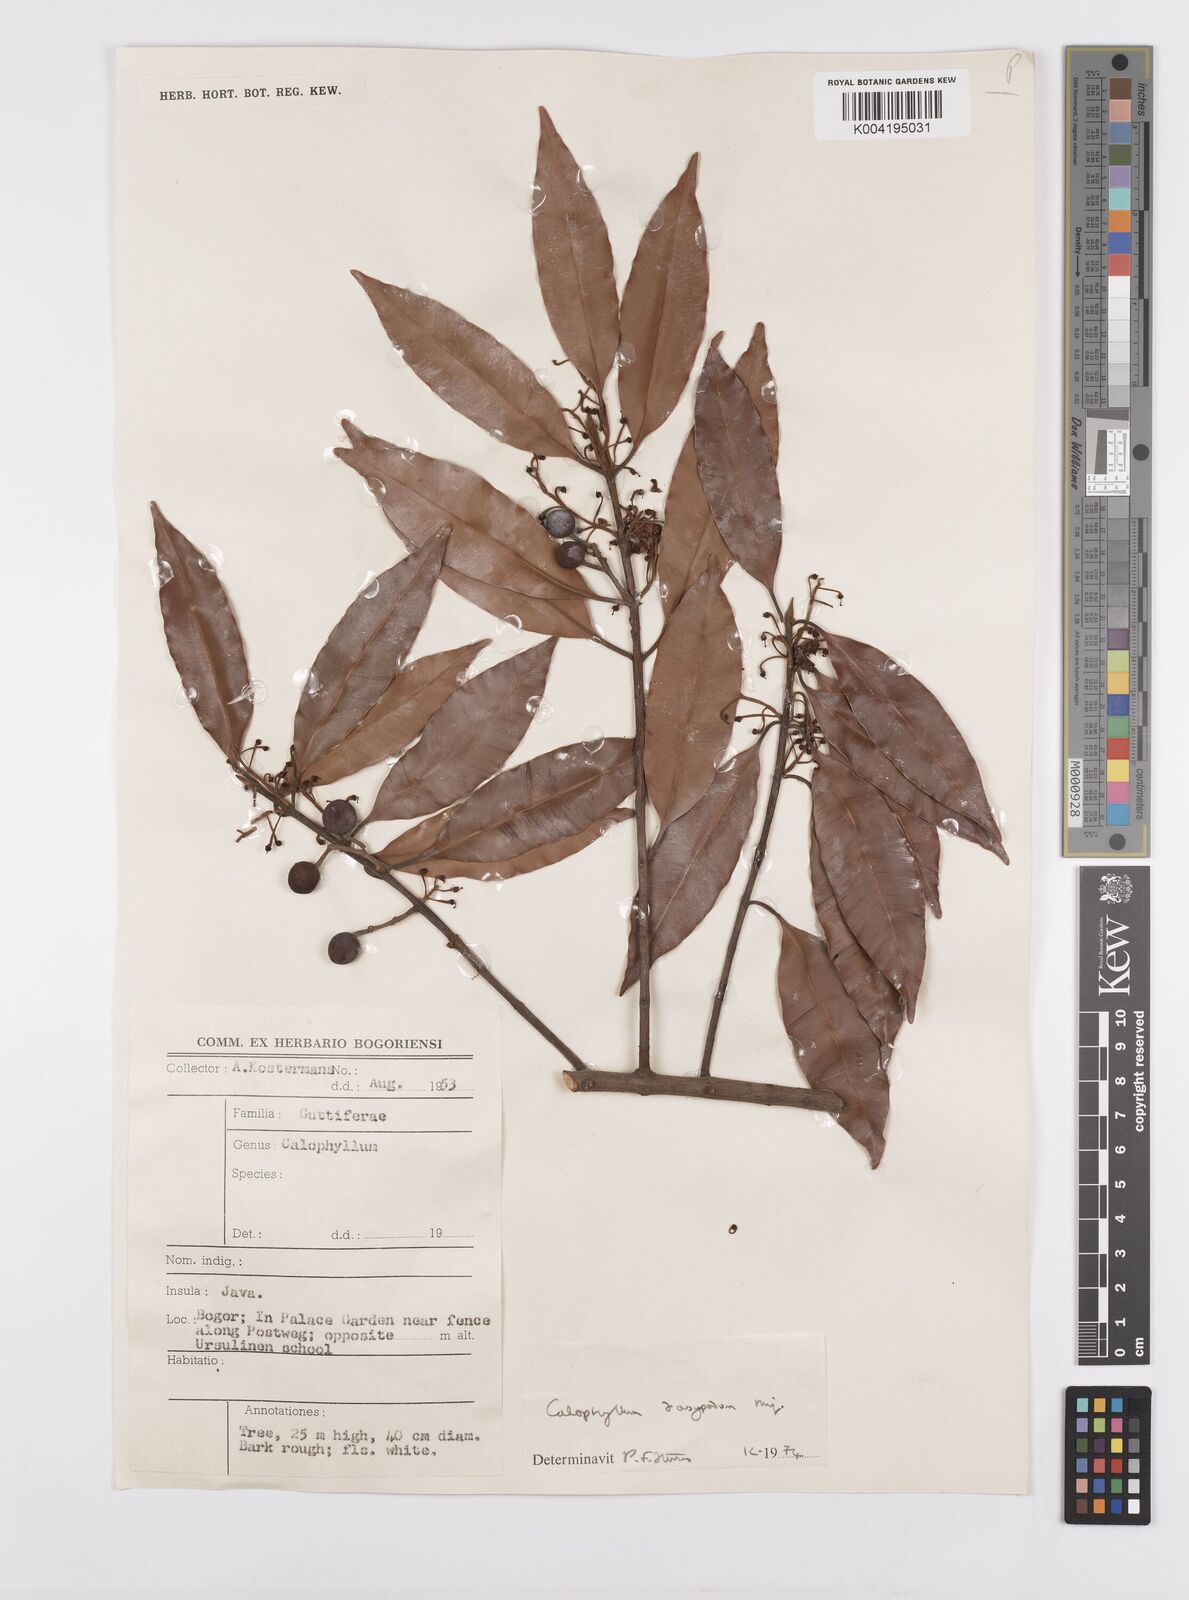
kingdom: Plantae
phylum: Tracheophyta
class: Magnoliopsida
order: Malpighiales
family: Calophyllaceae
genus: Calophyllum
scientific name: Calophyllum dasypodium
